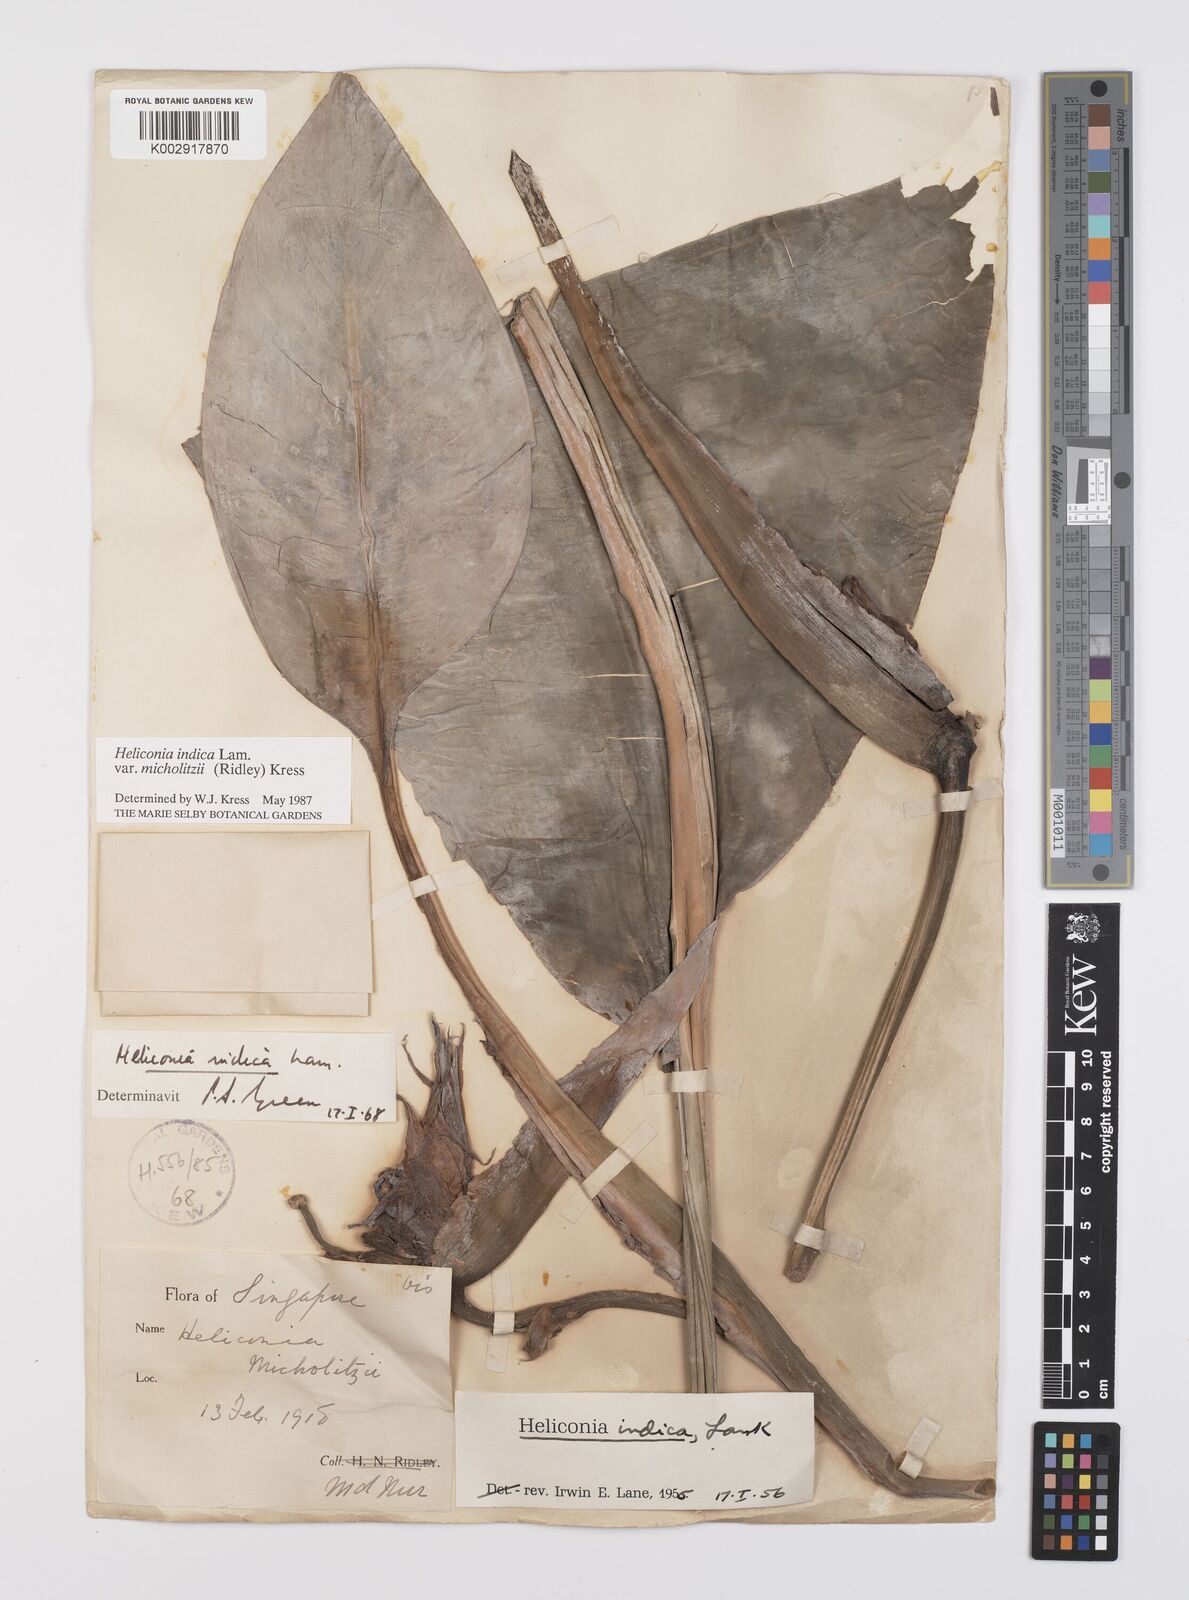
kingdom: Plantae
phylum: Tracheophyta
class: Liliopsida
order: Zingiberales
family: Heliconiaceae
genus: Heliconia
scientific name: Heliconia indica
